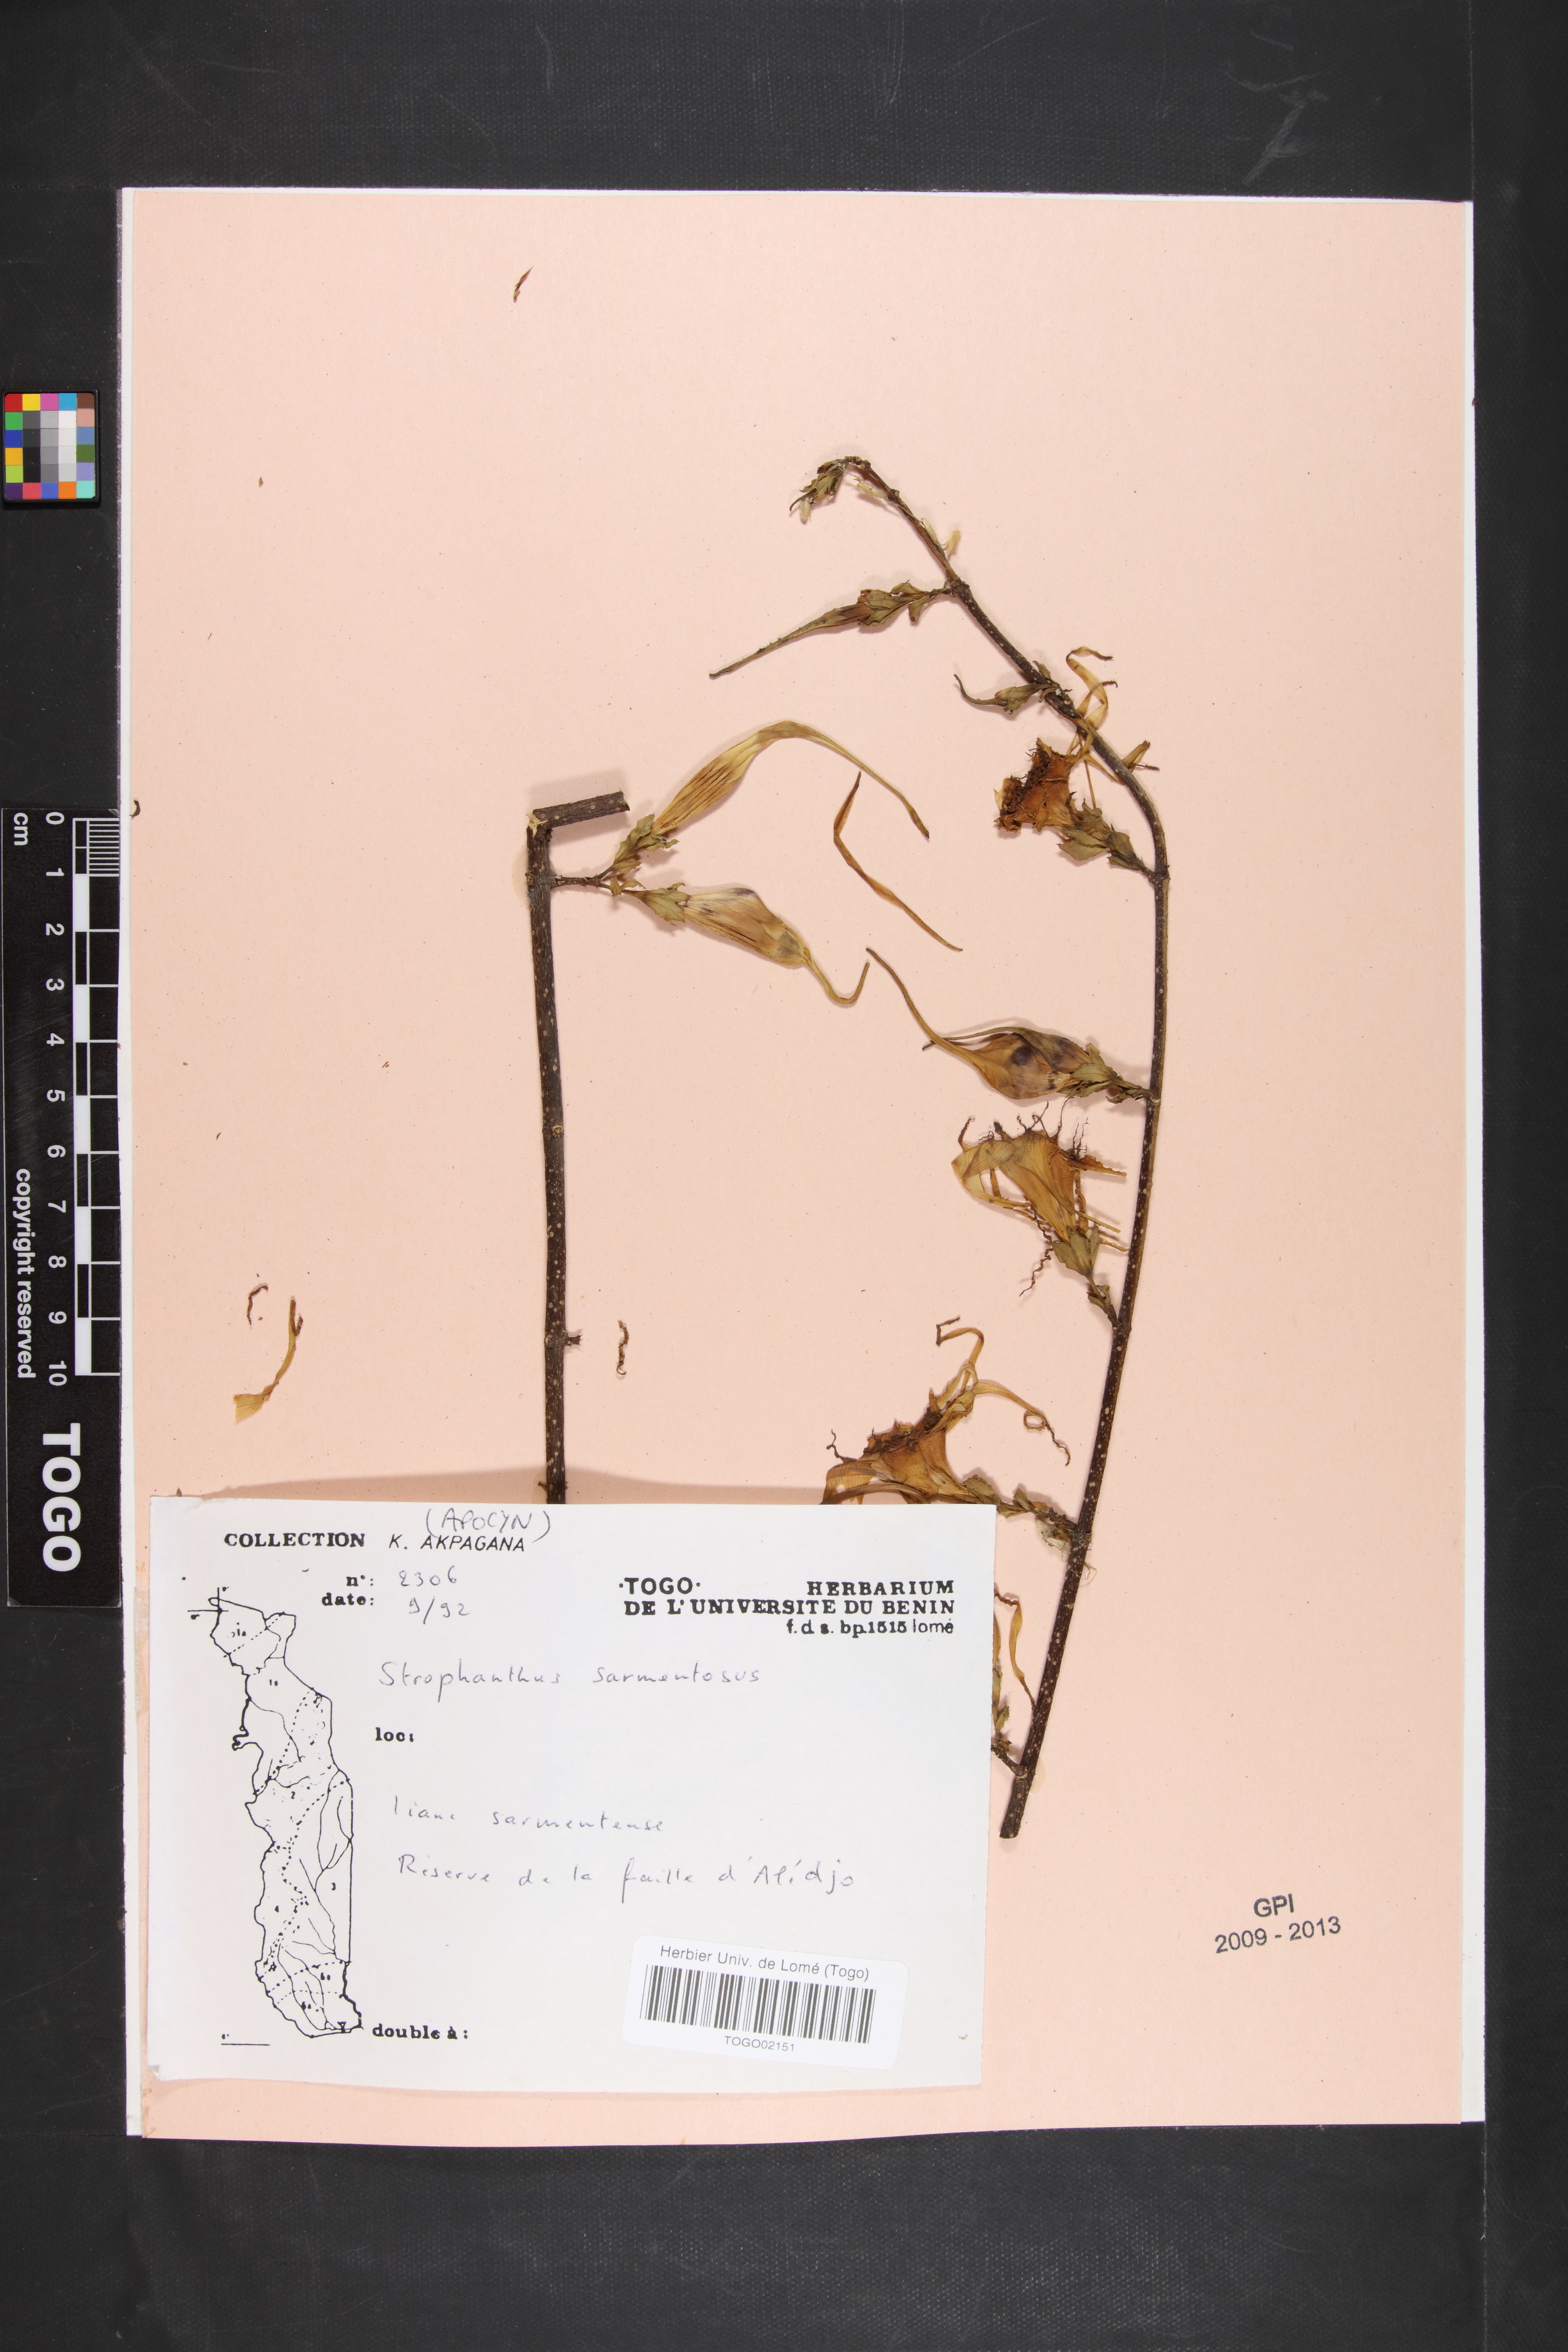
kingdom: Plantae
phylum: Tracheophyta
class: Magnoliopsida
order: Gentianales
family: Apocynaceae
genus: Strophanthus
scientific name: Strophanthus sarmentosus
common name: Poison arrowvine
